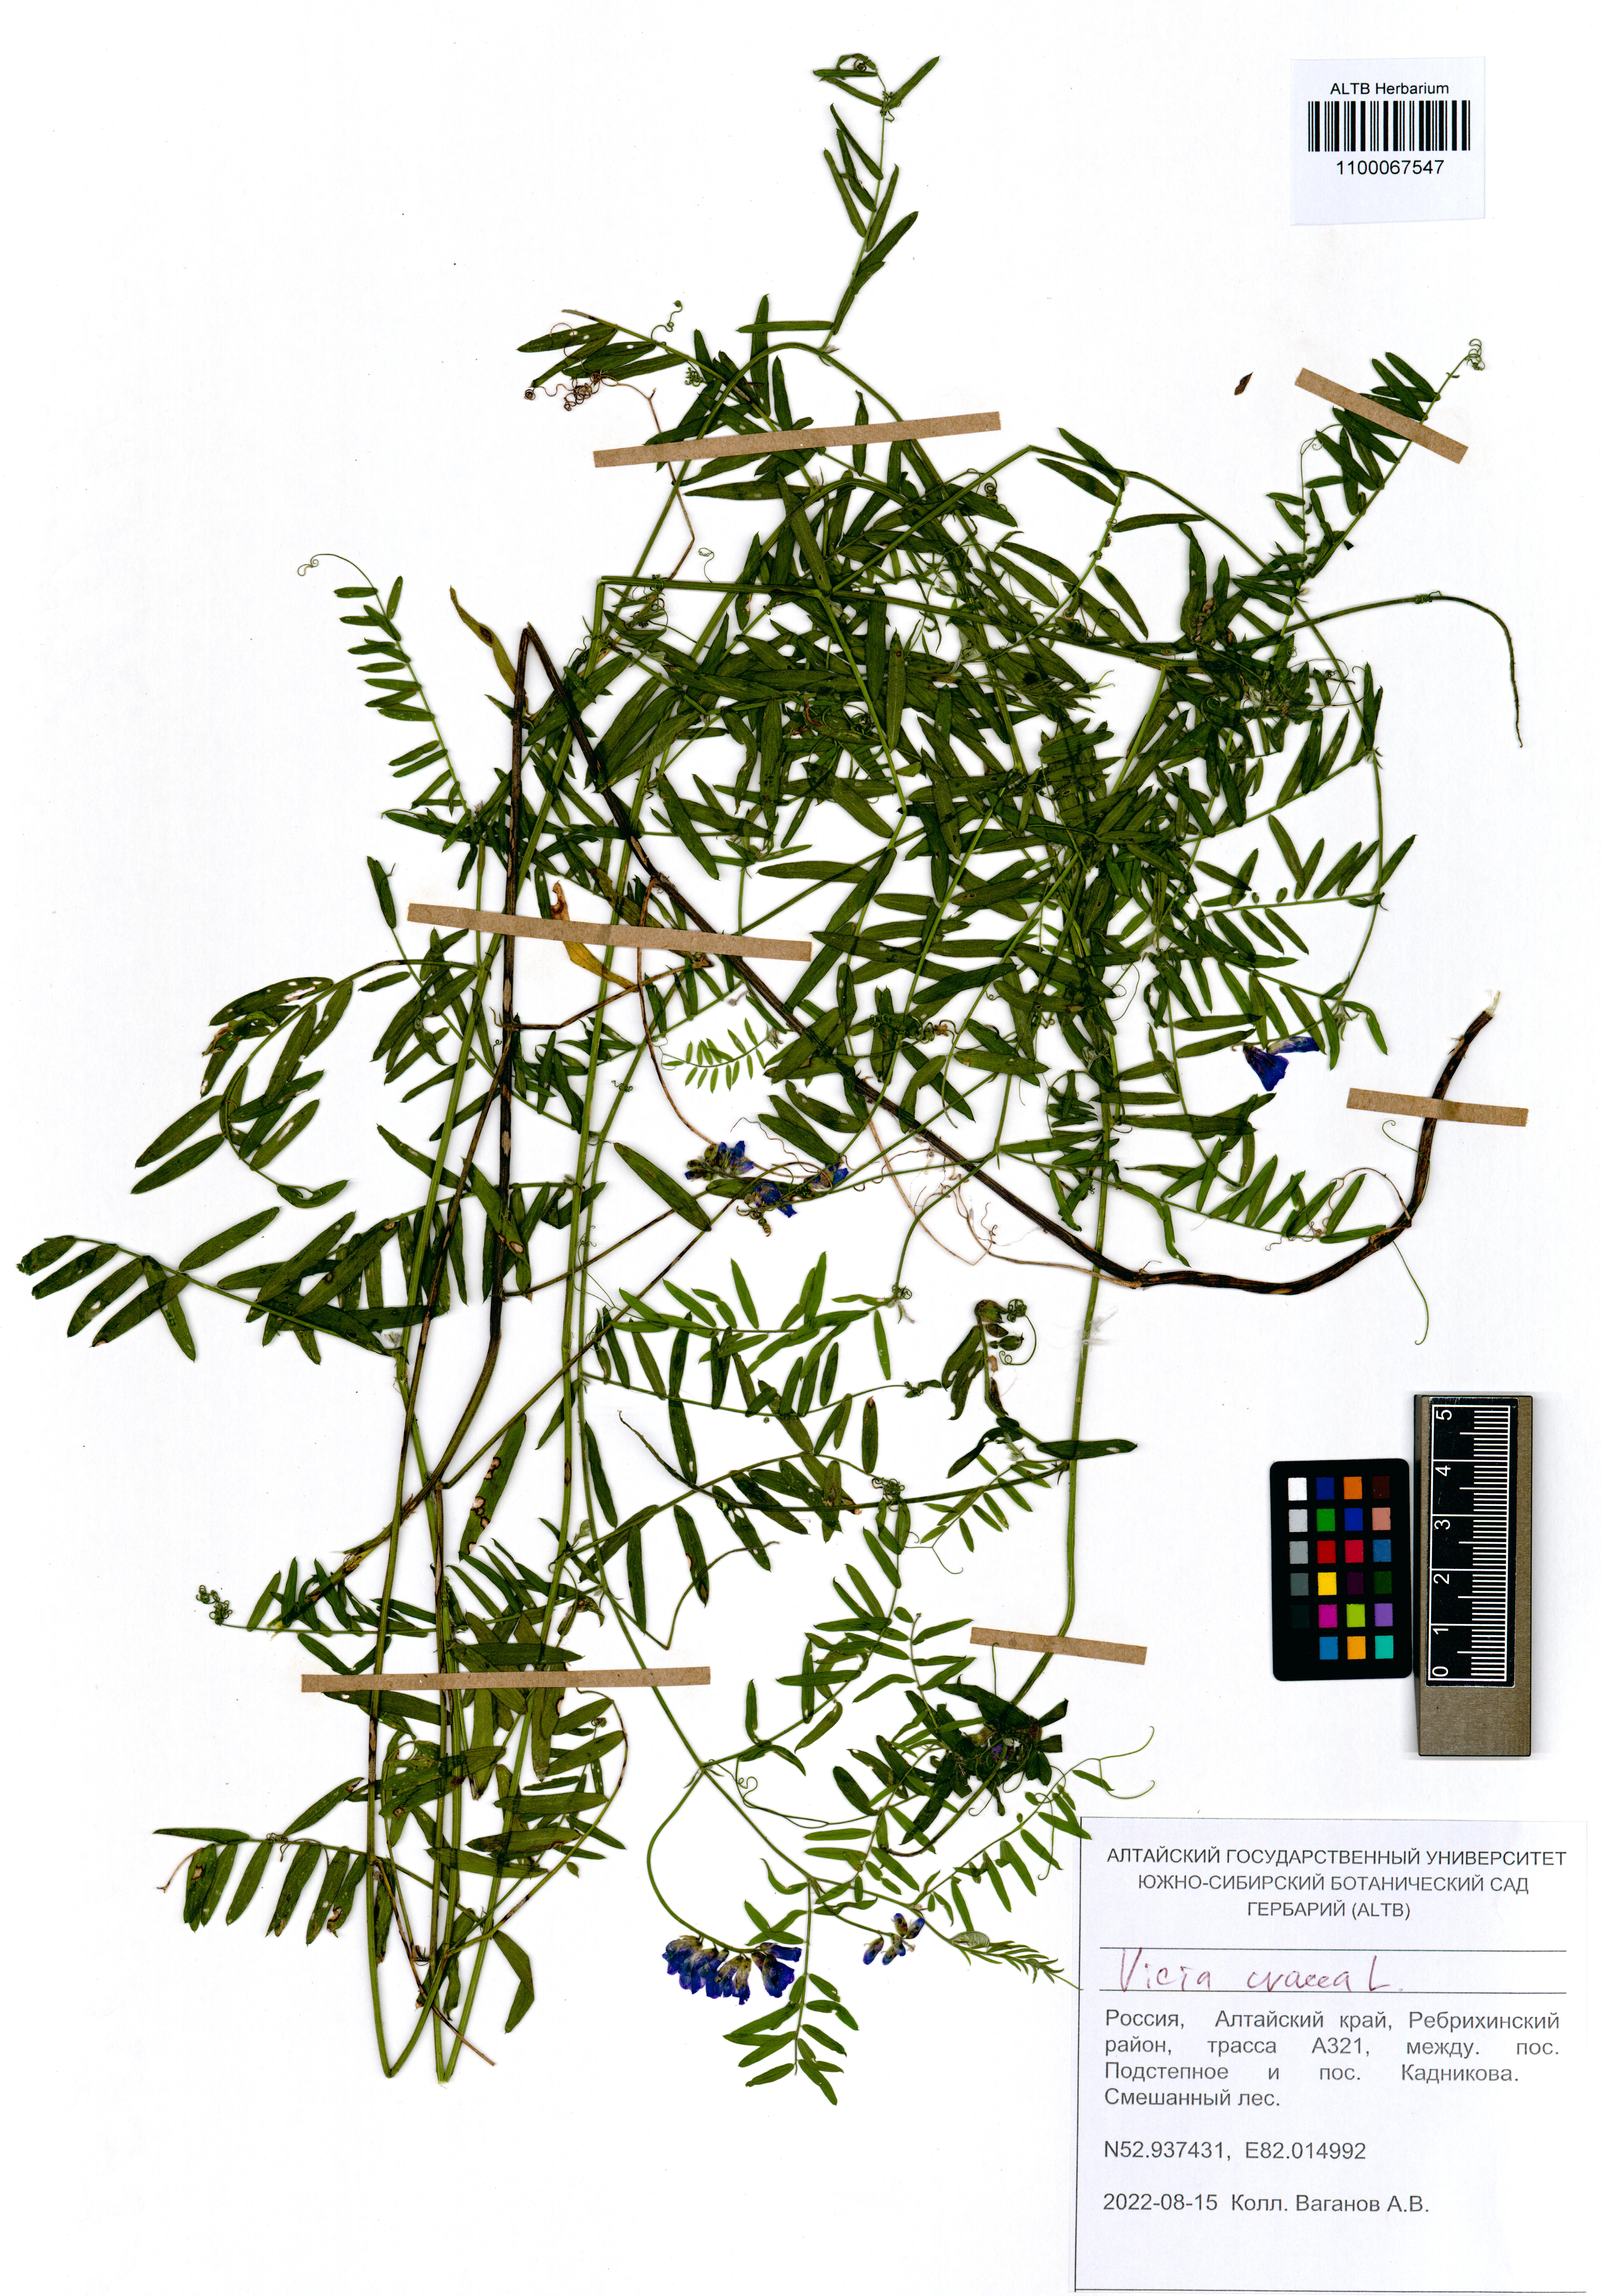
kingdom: Plantae
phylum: Tracheophyta
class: Magnoliopsida
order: Fabales
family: Fabaceae
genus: Vicia
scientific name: Vicia cracca
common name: Bird vetch
